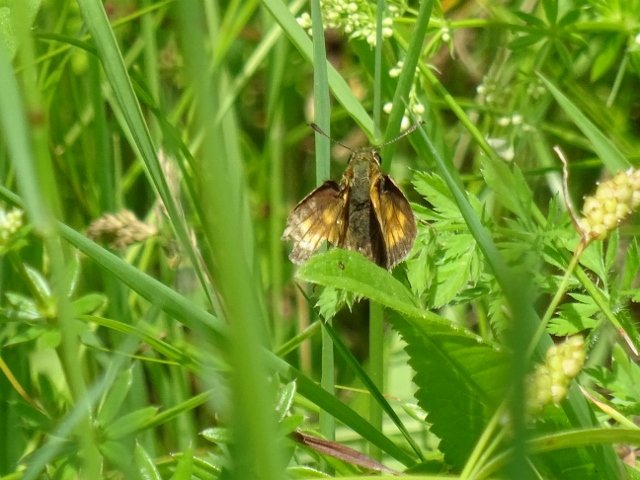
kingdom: Animalia
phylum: Arthropoda
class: Insecta
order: Lepidoptera
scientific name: Lepidoptera
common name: Butterflies
